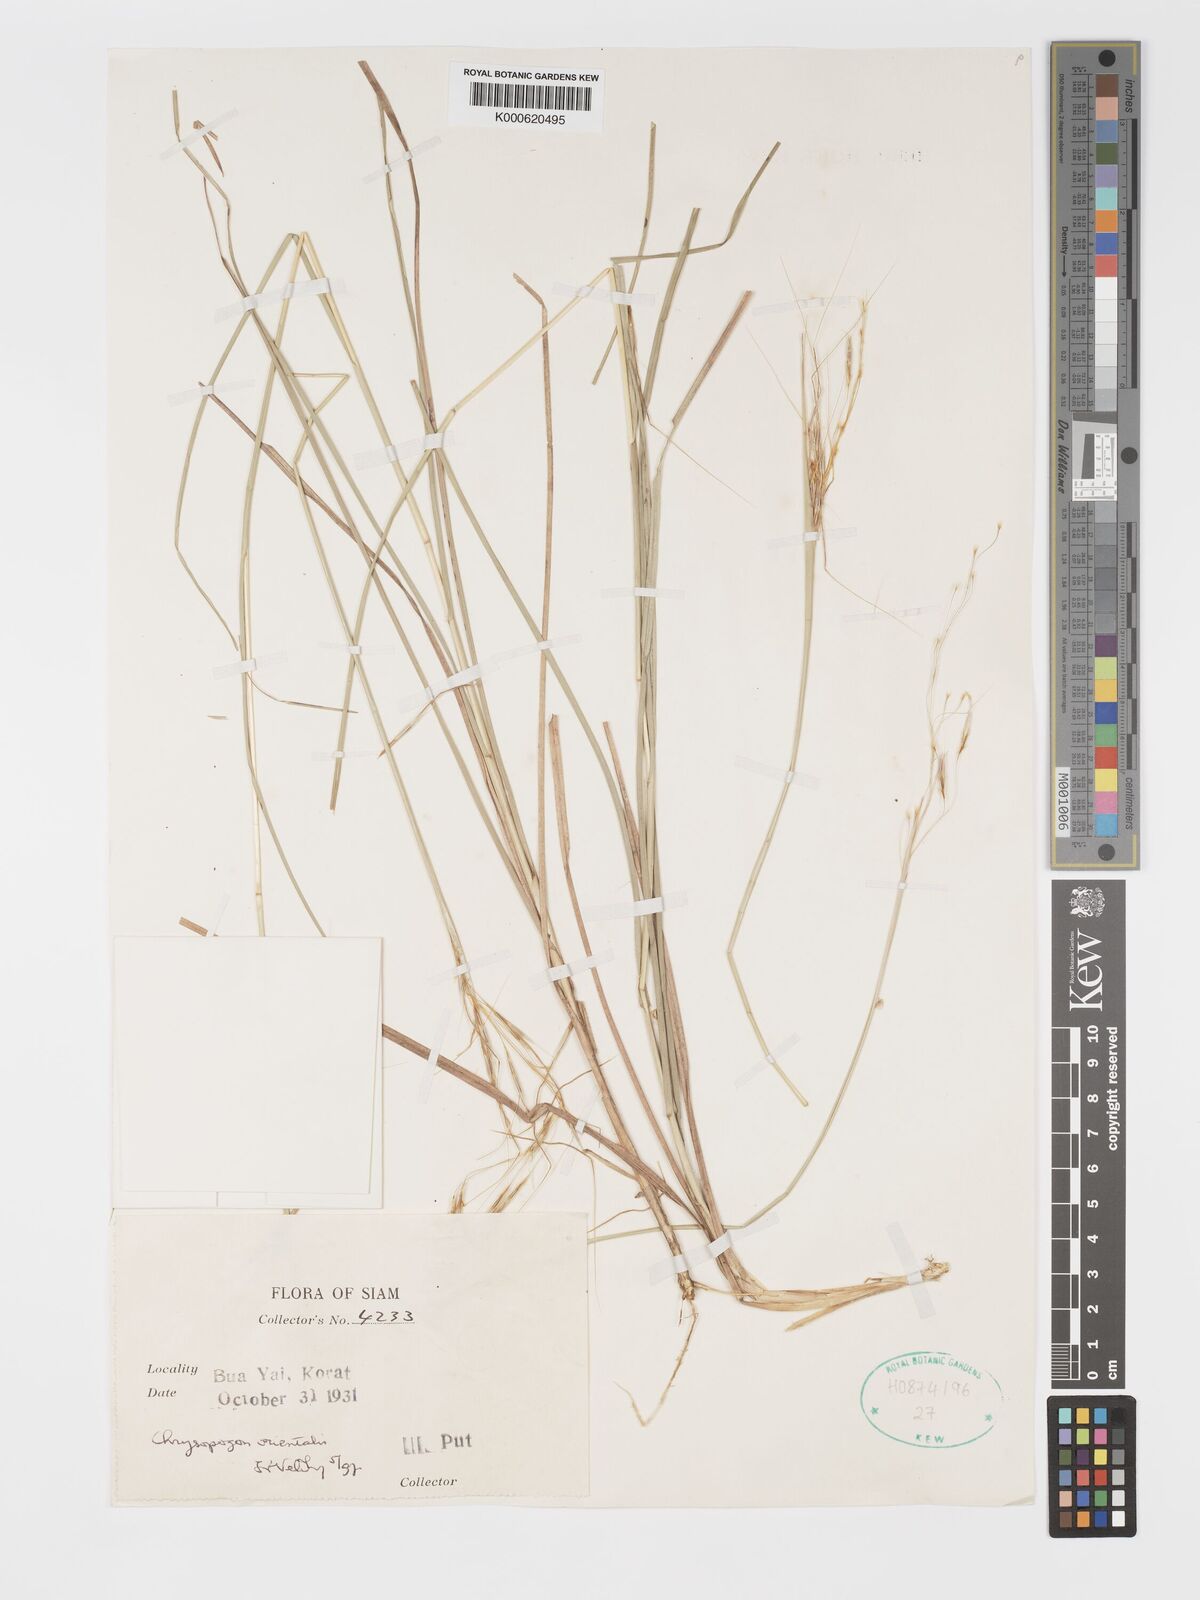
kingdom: Plantae
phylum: Tracheophyta
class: Liliopsida
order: Poales
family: Poaceae
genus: Chrysopogon
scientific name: Chrysopogon orientalis
